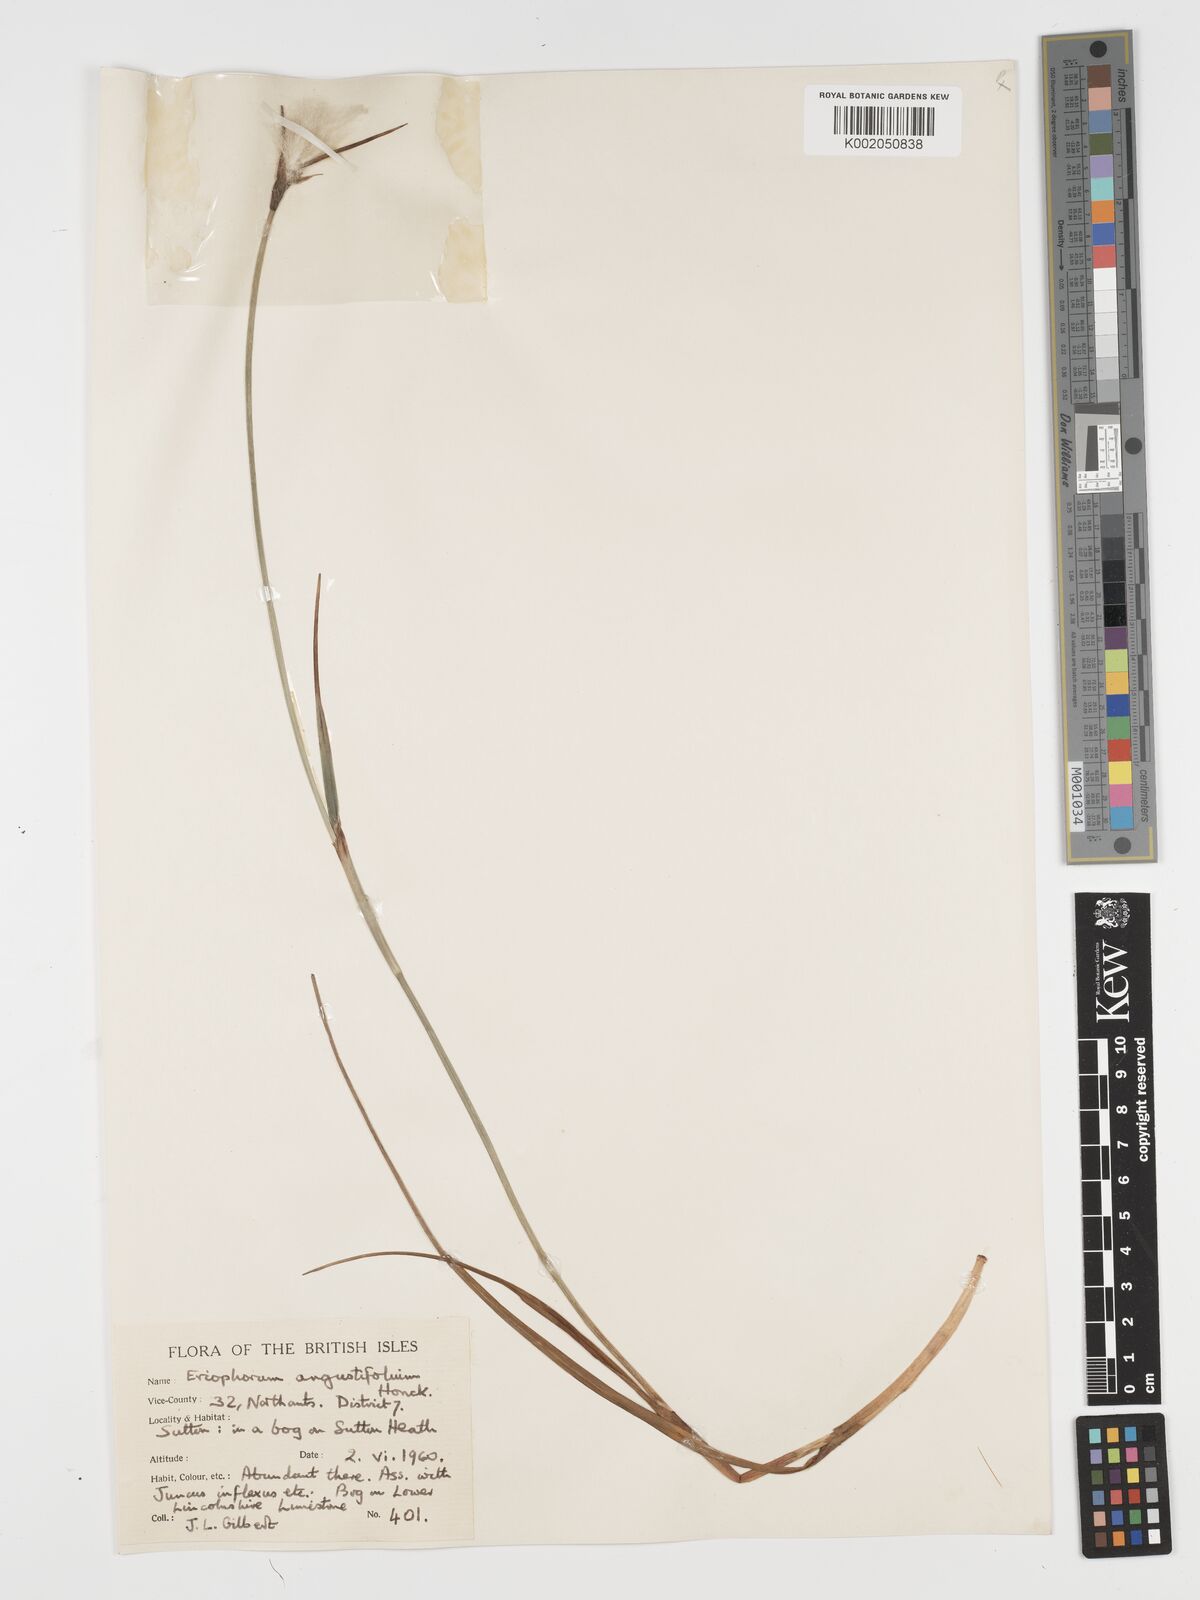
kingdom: Plantae
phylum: Tracheophyta
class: Liliopsida
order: Poales
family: Cyperaceae
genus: Eriophorum
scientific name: Eriophorum angustifolium
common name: Common cottongrass
